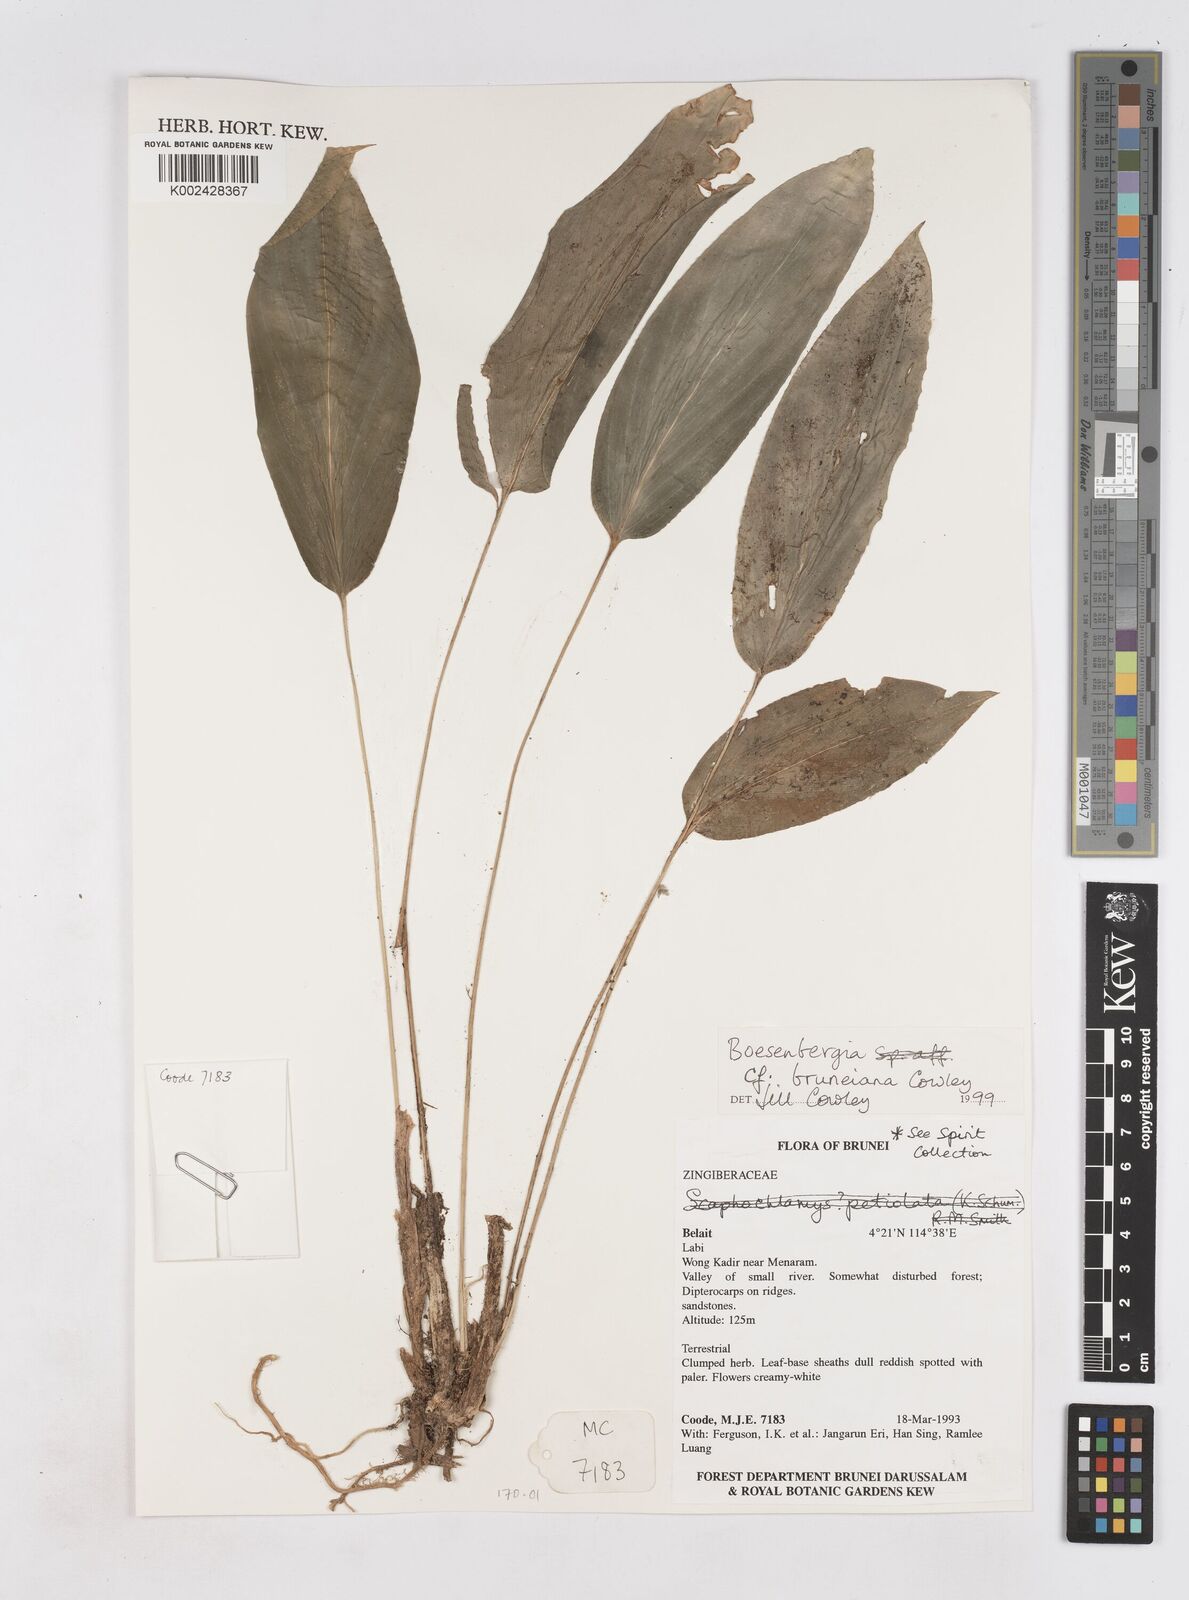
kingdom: Plantae
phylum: Tracheophyta
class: Liliopsida
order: Zingiberales
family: Zingiberaceae
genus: Boesenbergia
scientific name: Boesenbergia bruneiana
